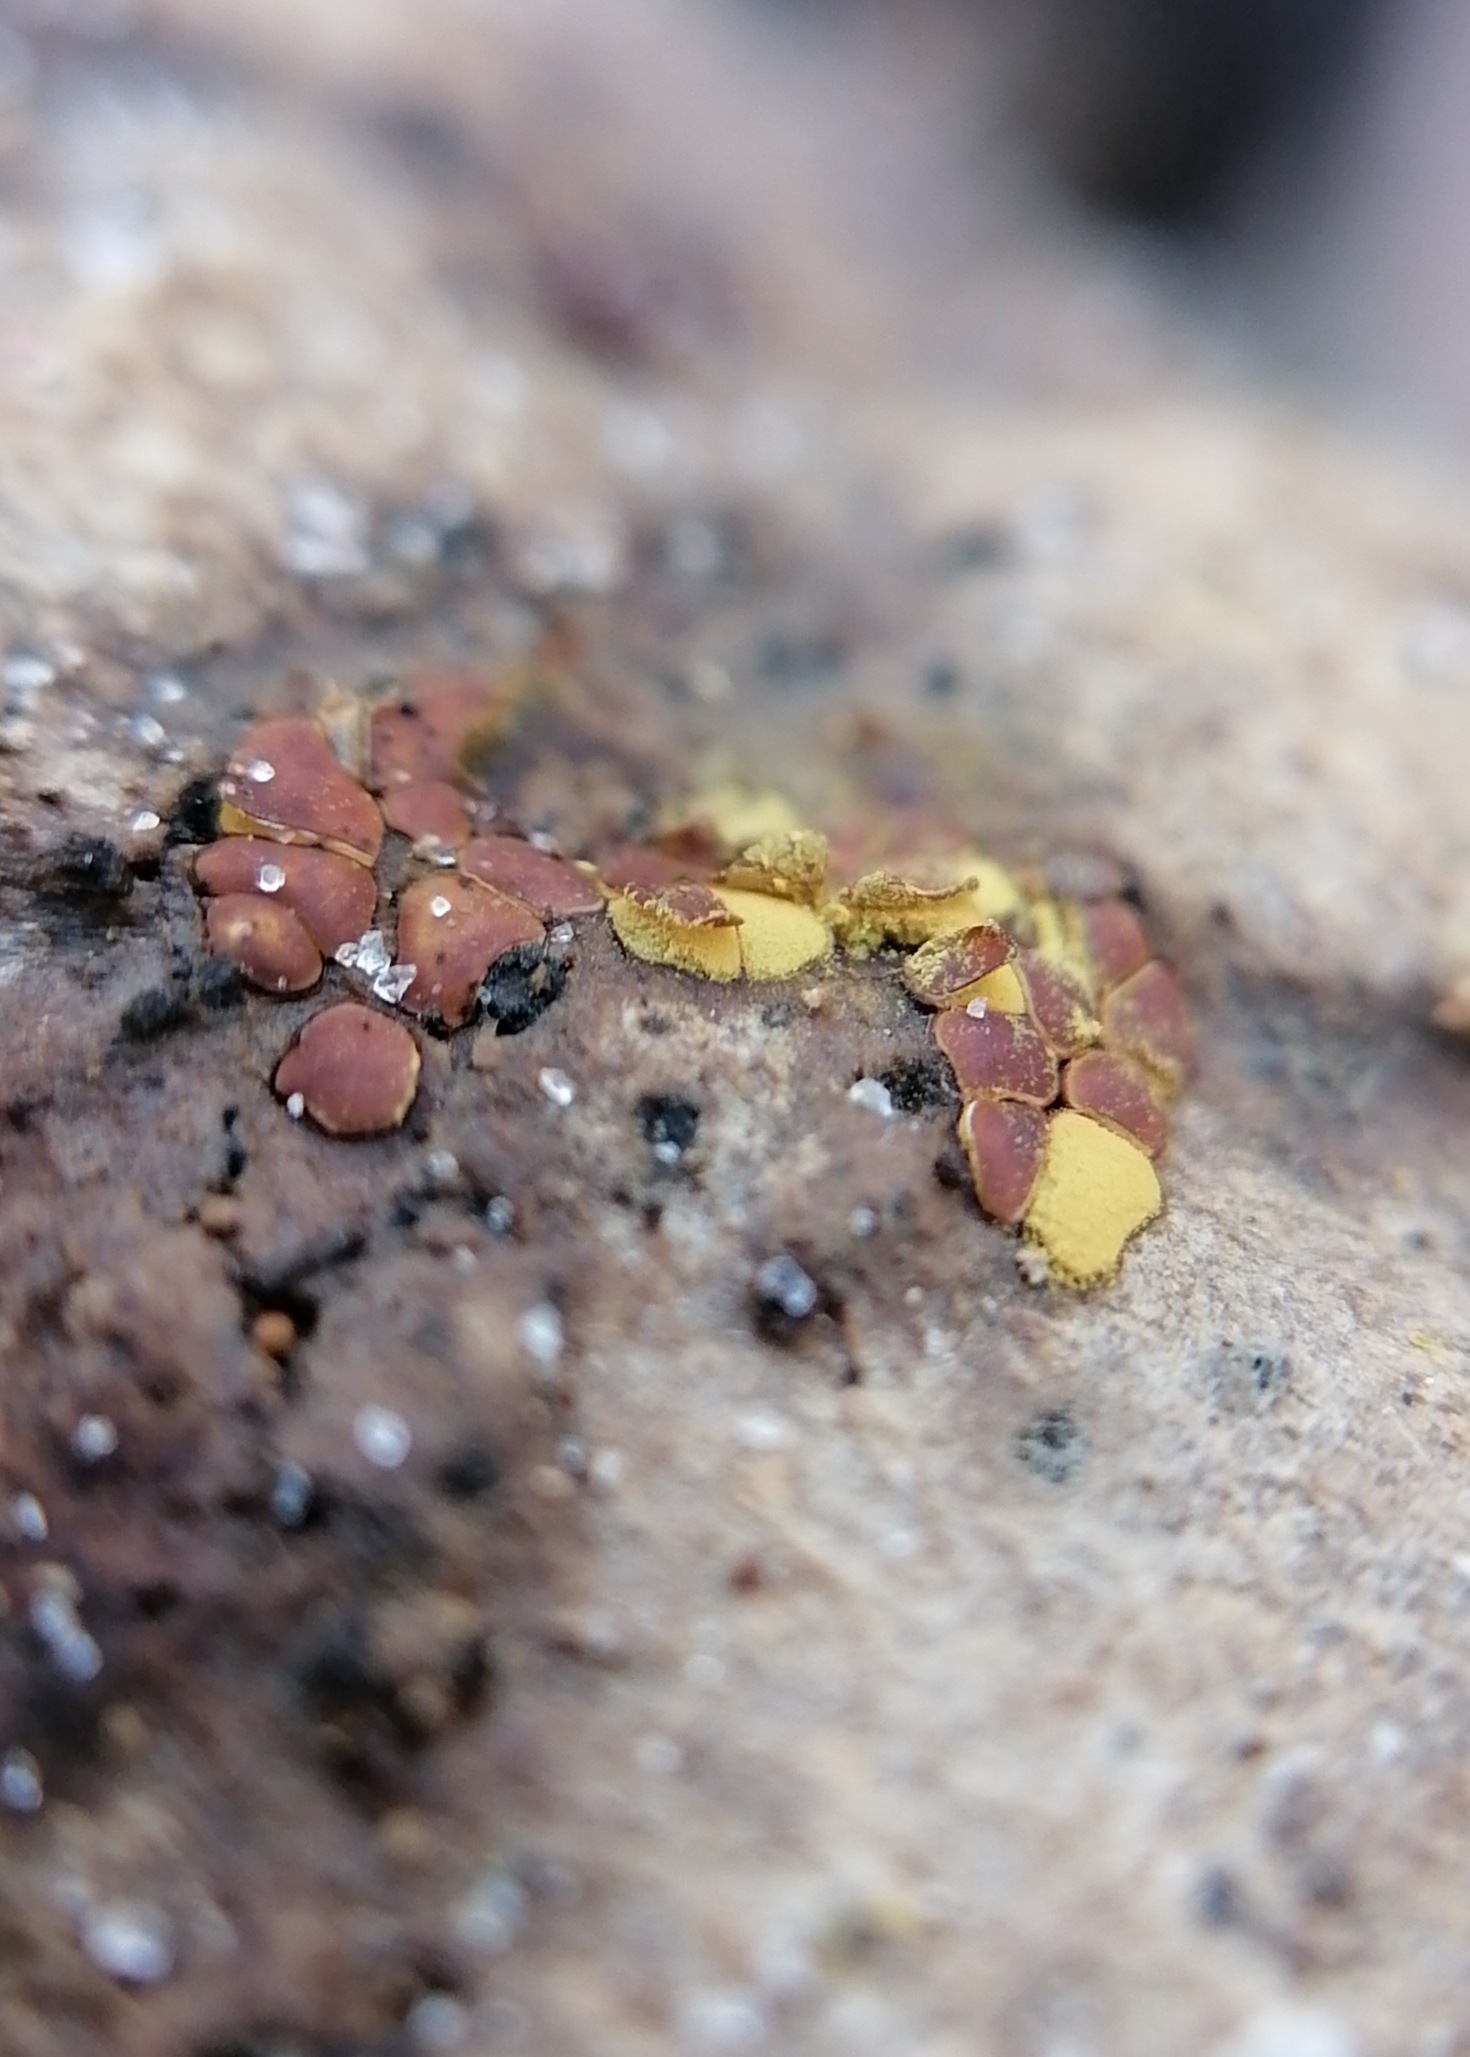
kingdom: Protozoa
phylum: Mycetozoa
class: Myxomycetes
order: Trichiales
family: Trichiaceae
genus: Perichaena
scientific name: Perichaena depressa
